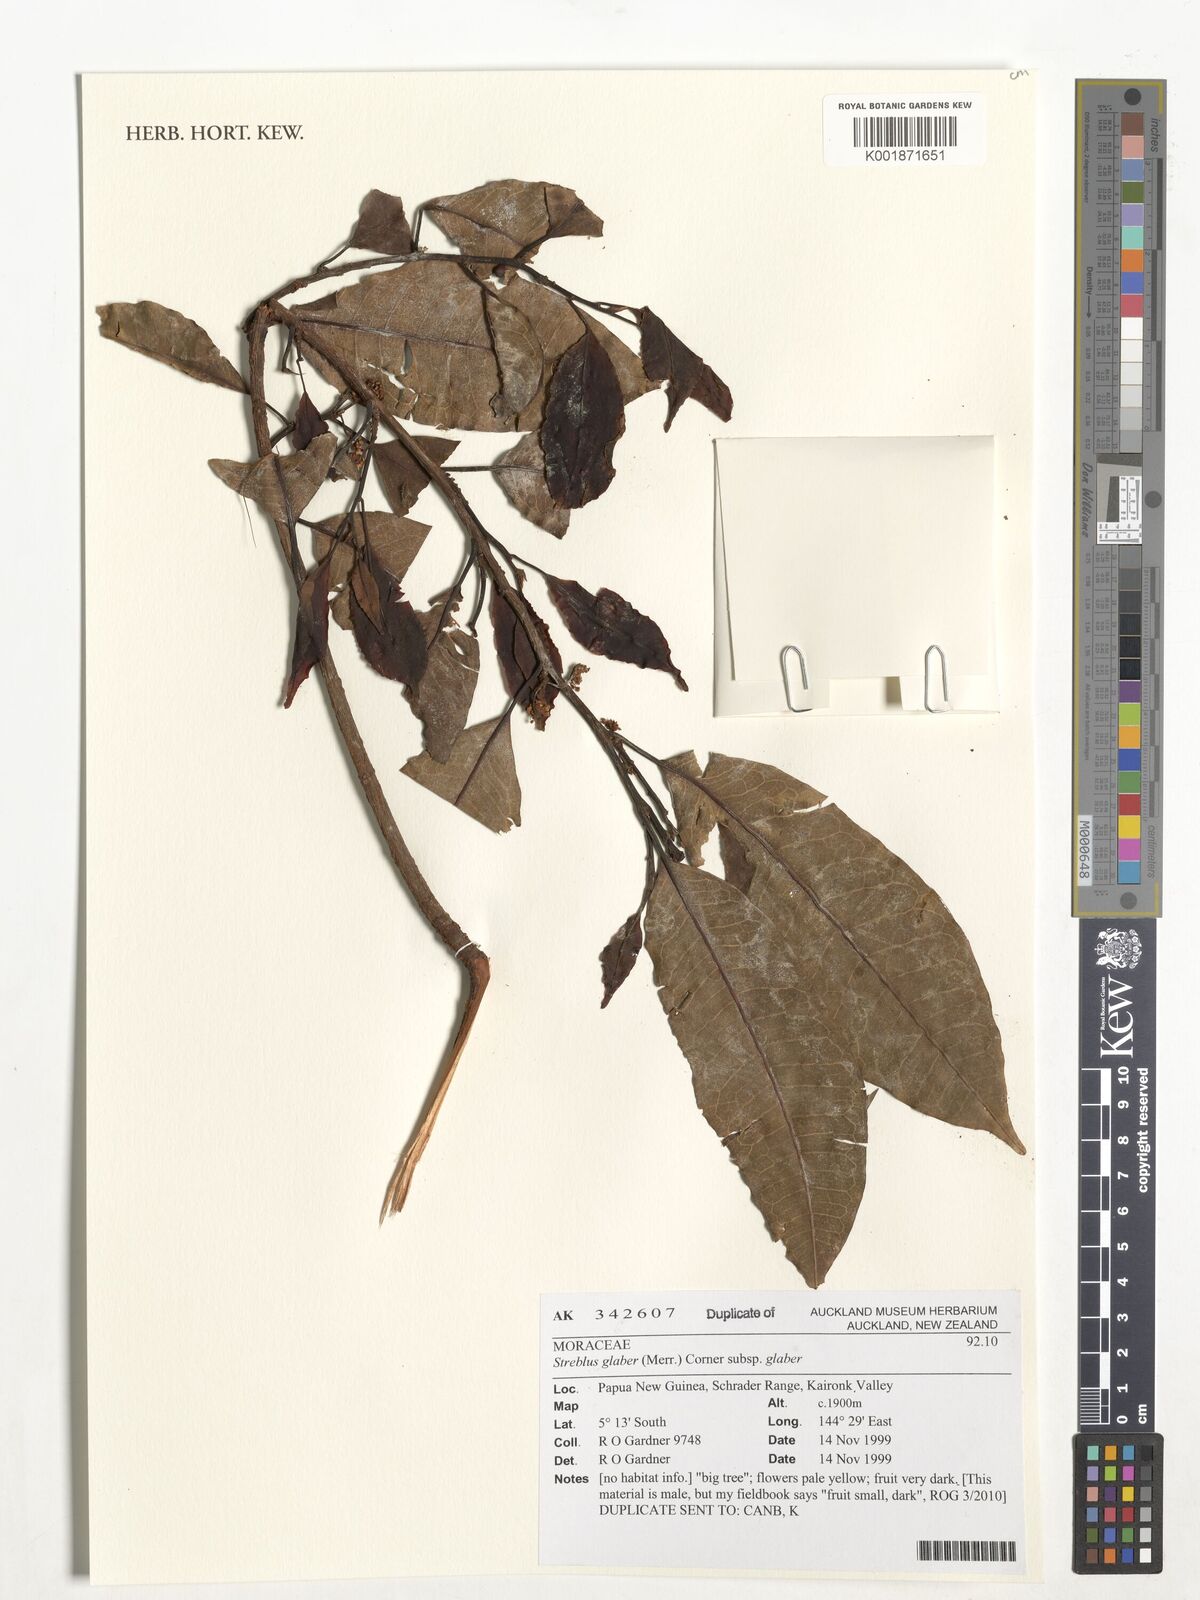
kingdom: Plantae
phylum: Tracheophyta
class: Magnoliopsida
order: Rosales
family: Moraceae
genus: Paratrophis
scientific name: Paratrophis glabra
